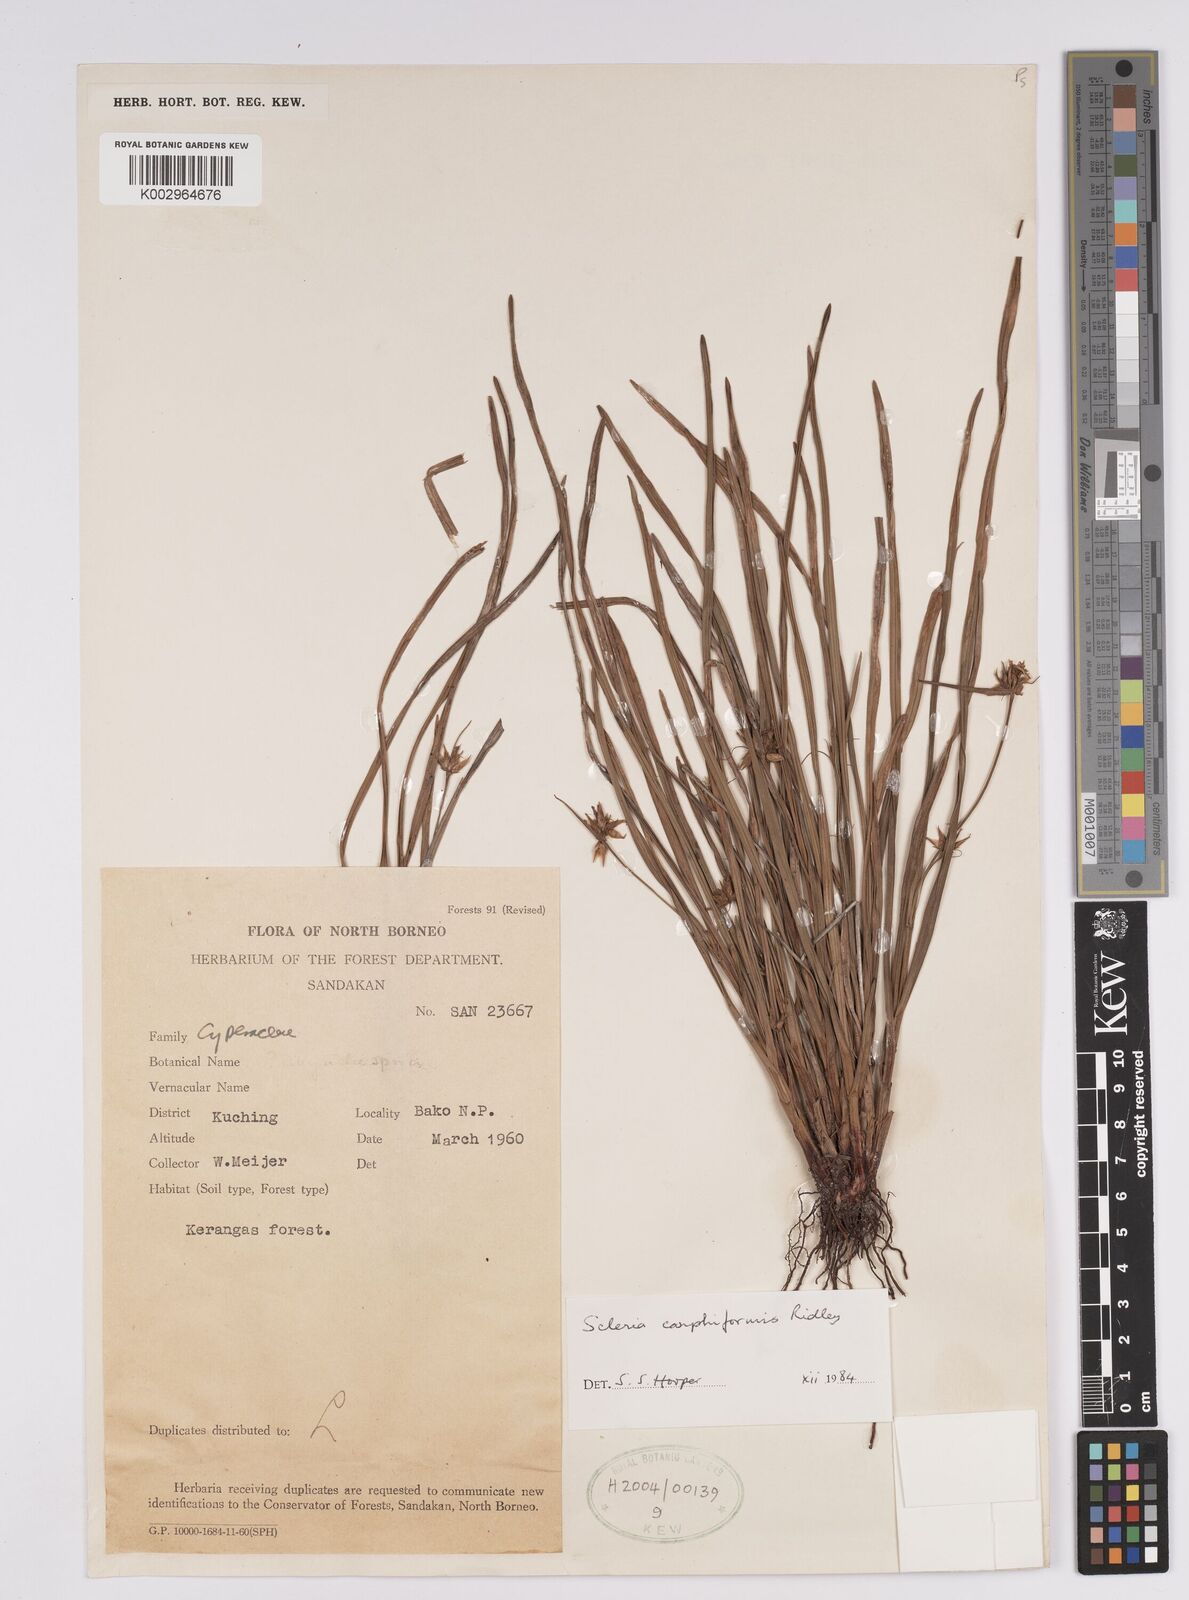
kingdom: Plantae
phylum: Tracheophyta
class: Liliopsida
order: Poales
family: Cyperaceae
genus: Scleria
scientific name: Scleria carphiformis
